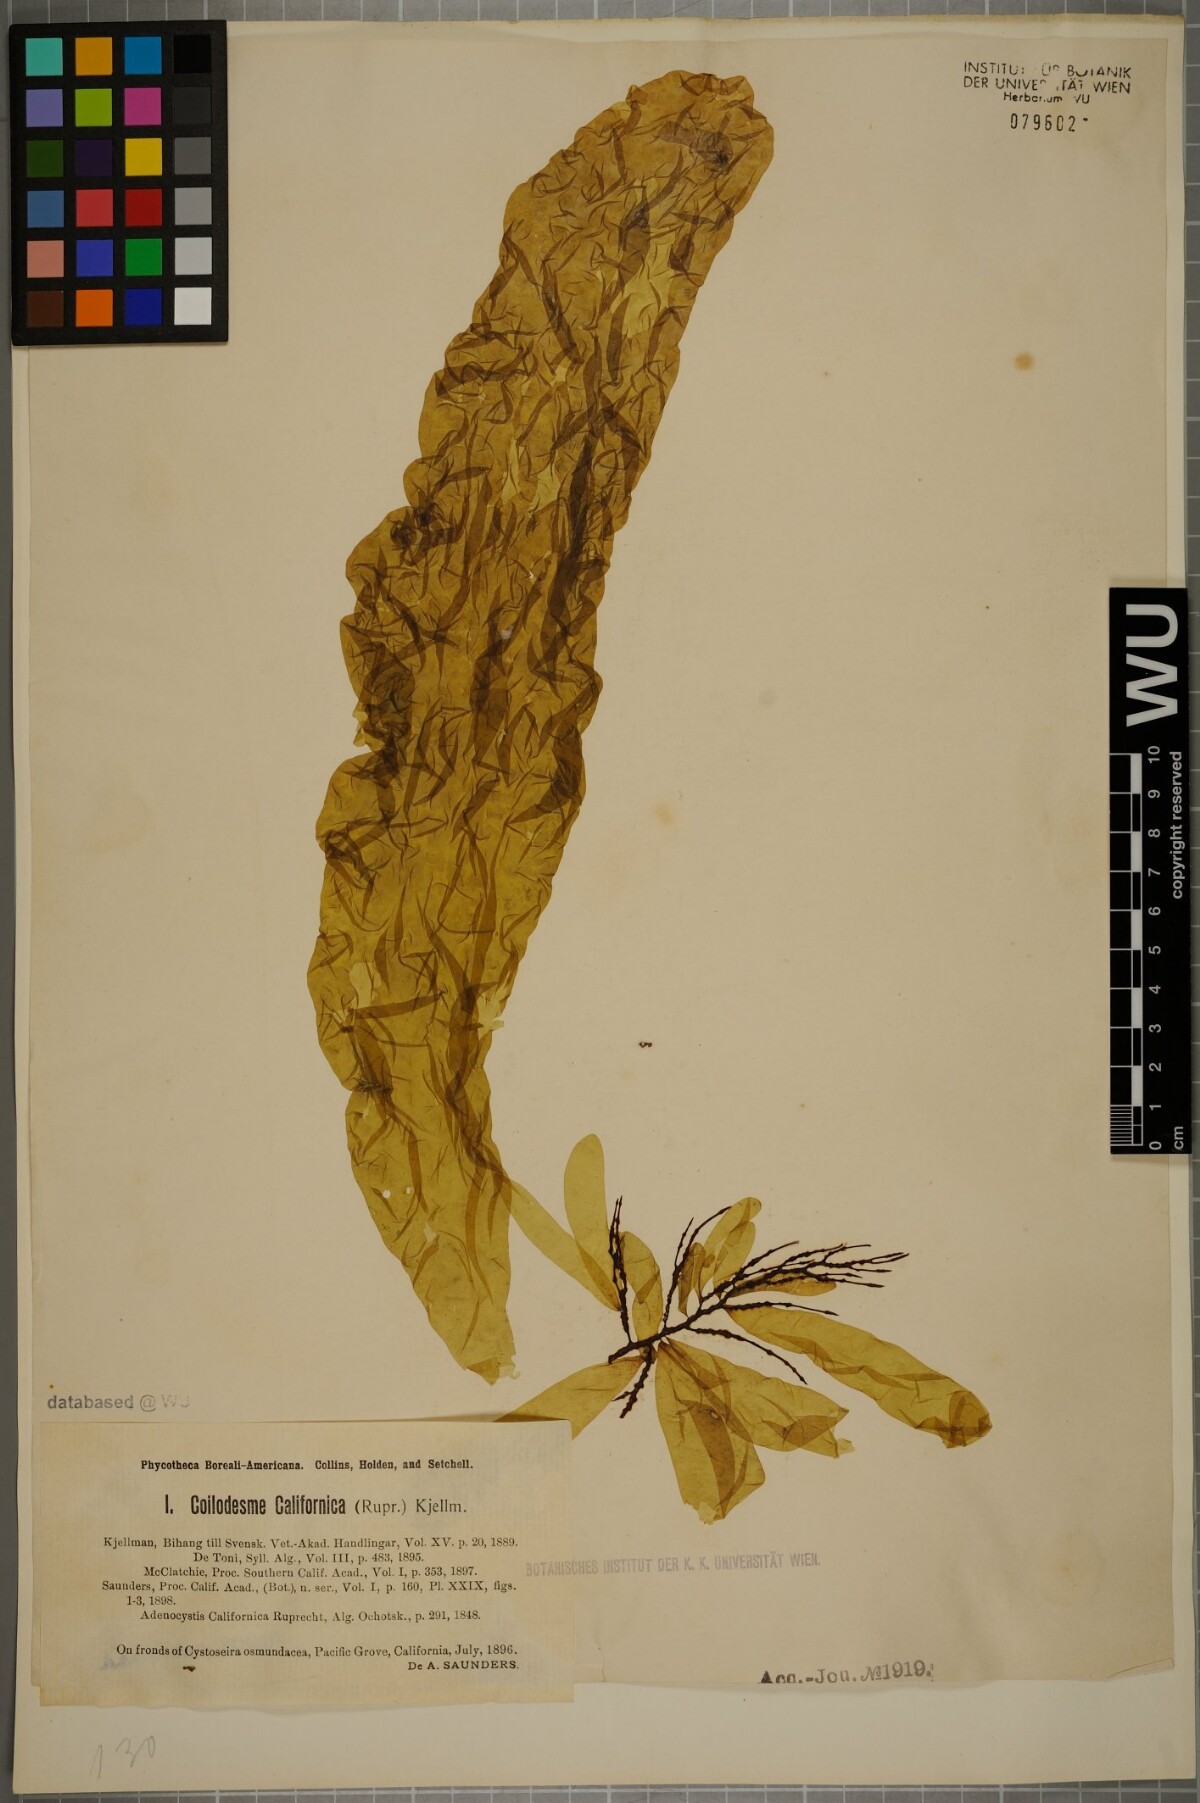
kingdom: Chromista
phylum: Ochrophyta
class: Phaeophyceae
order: Ectocarpales
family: Chordariaceae
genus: Coilodesme
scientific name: Coilodesme californica
